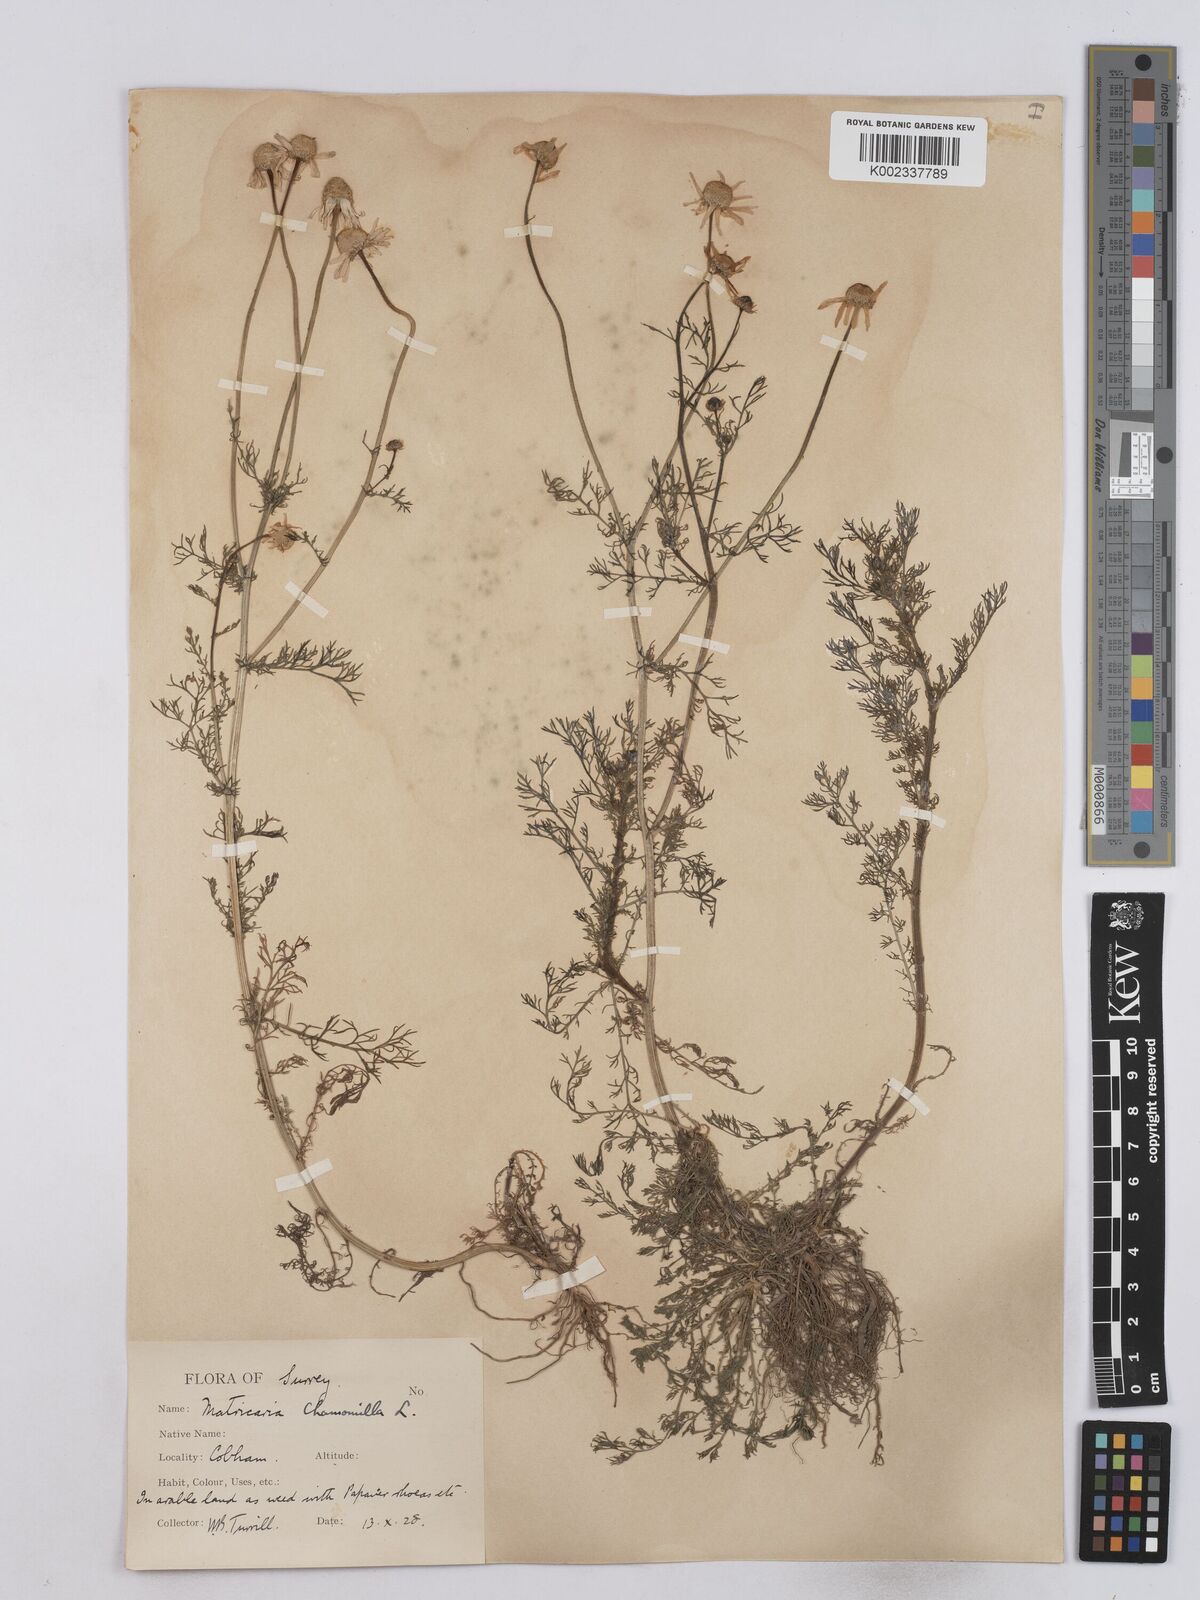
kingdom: Plantae
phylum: Tracheophyta
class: Magnoliopsida
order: Asterales
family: Asteraceae
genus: Matricaria
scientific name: Matricaria chamomilla
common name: Scented mayweed
